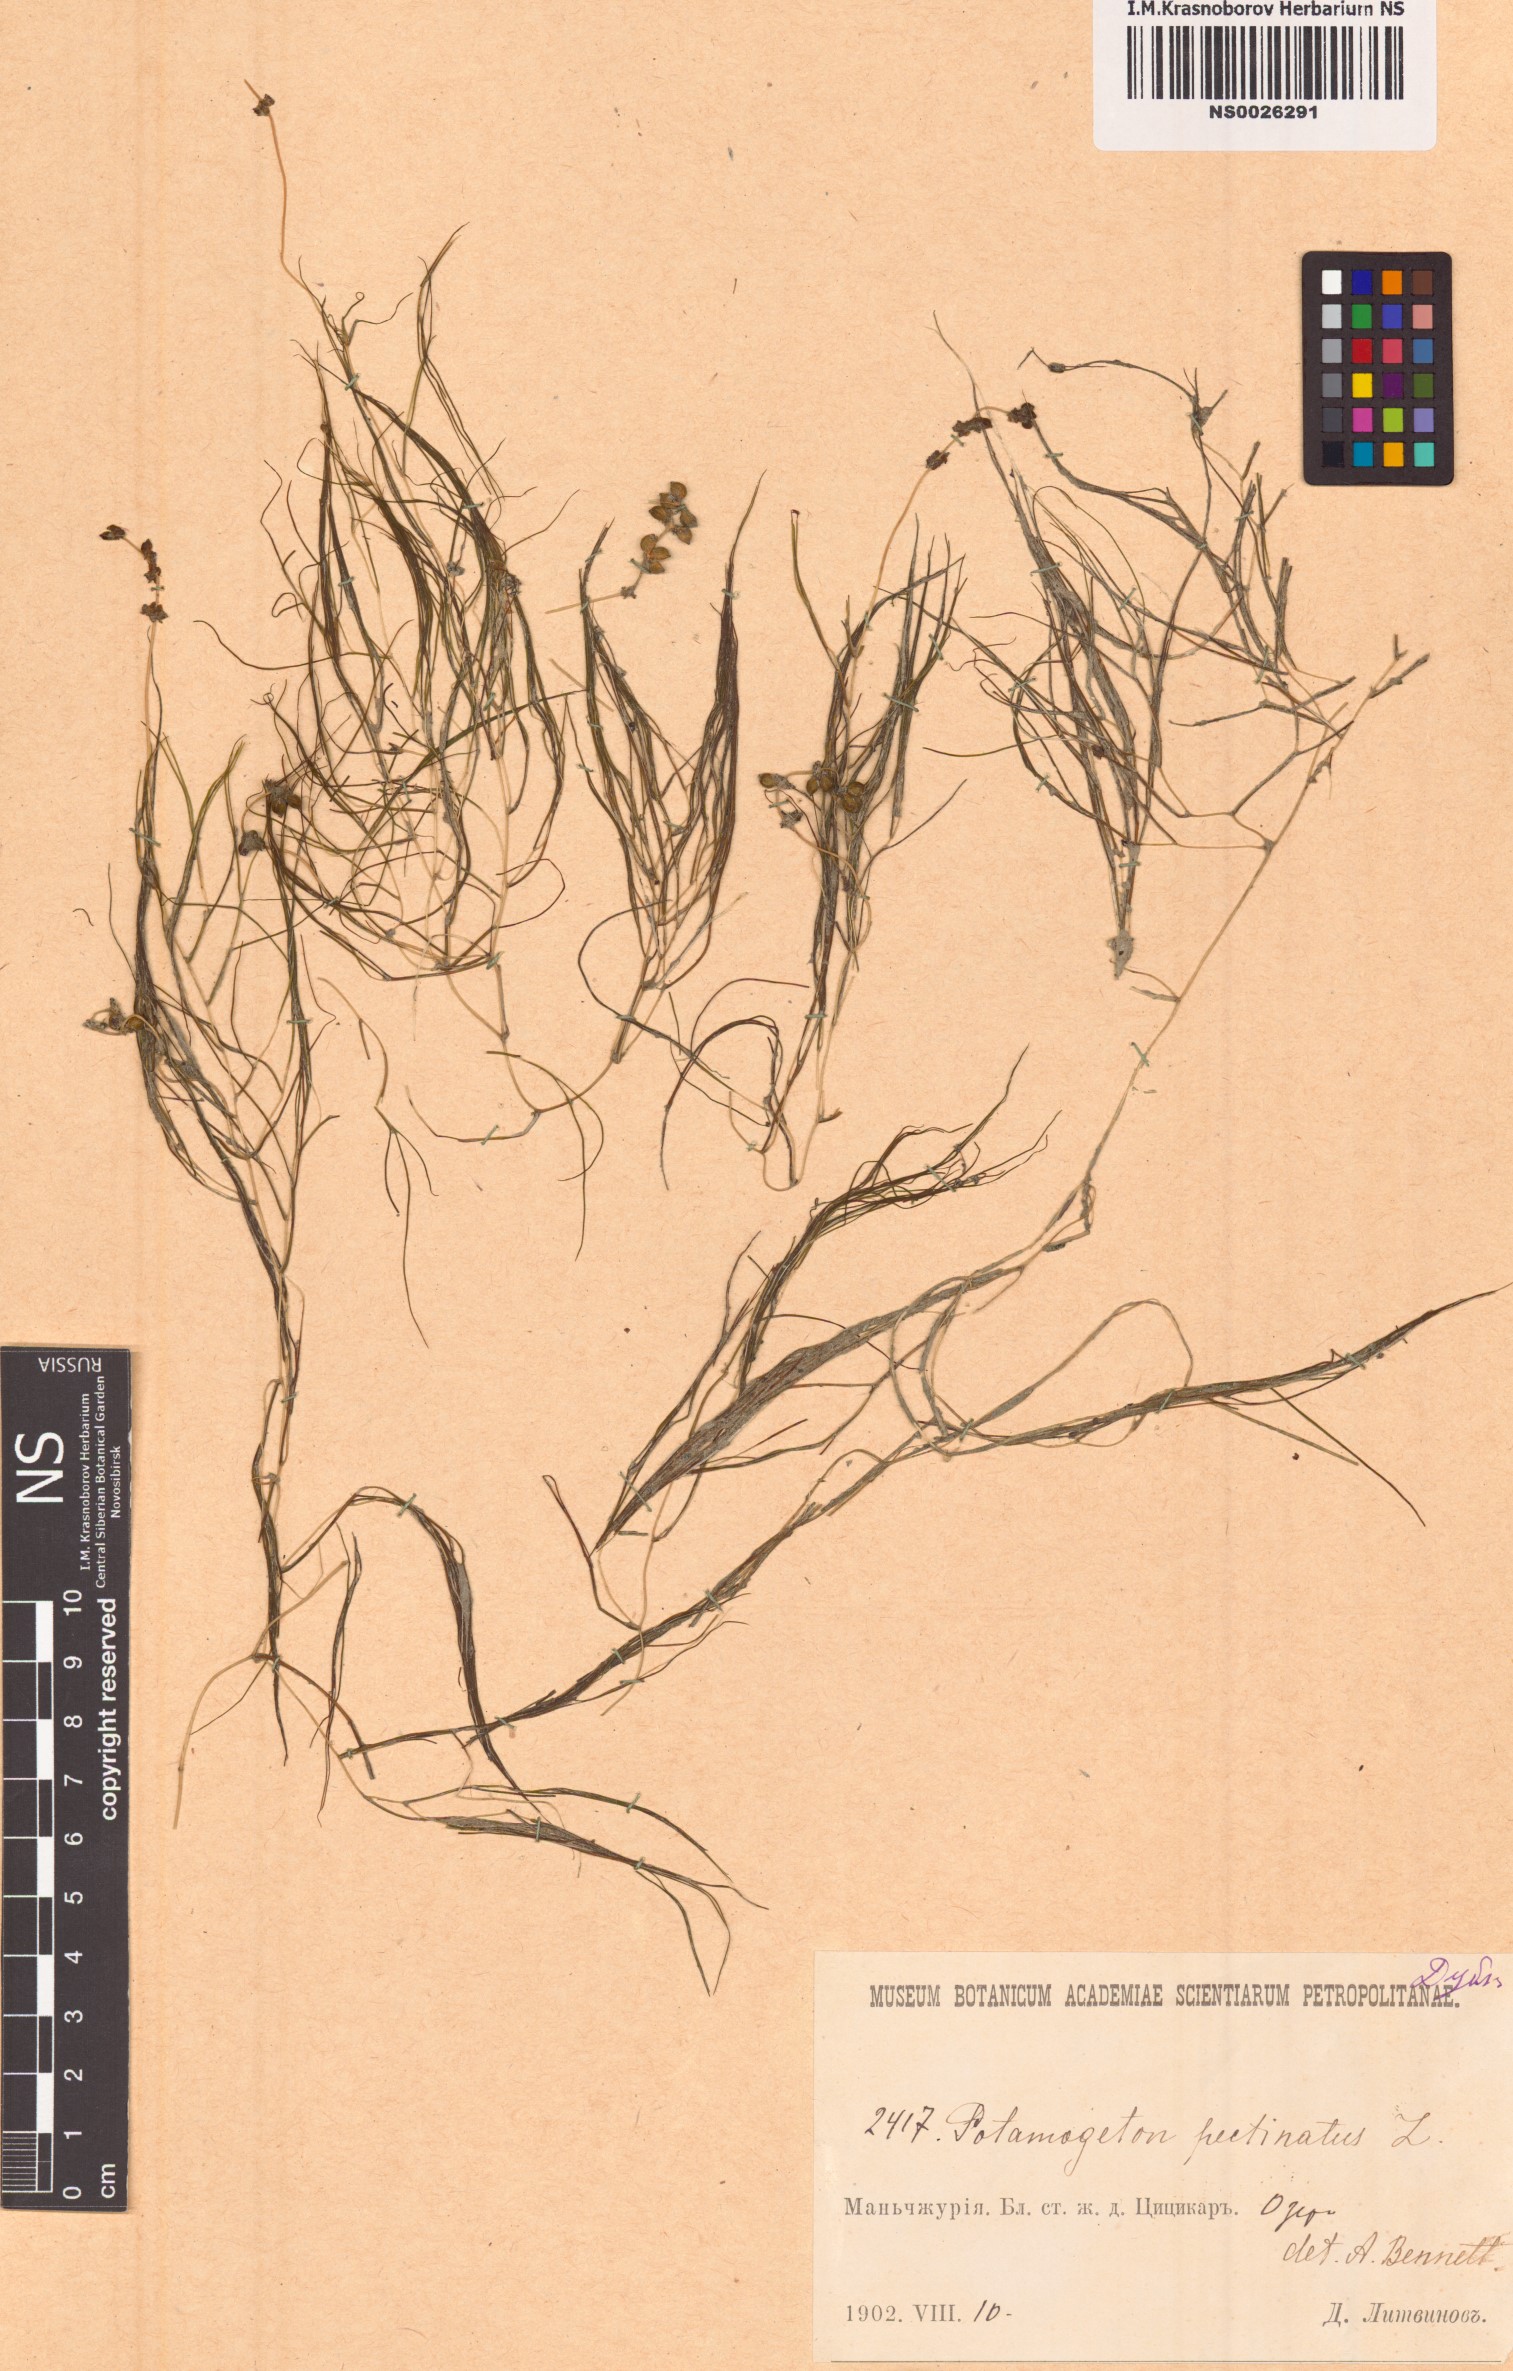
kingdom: Plantae
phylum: Tracheophyta
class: Liliopsida
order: Alismatales
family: Potamogetonaceae
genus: Stuckenia
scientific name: Stuckenia pectinata
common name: Sago pondweed
